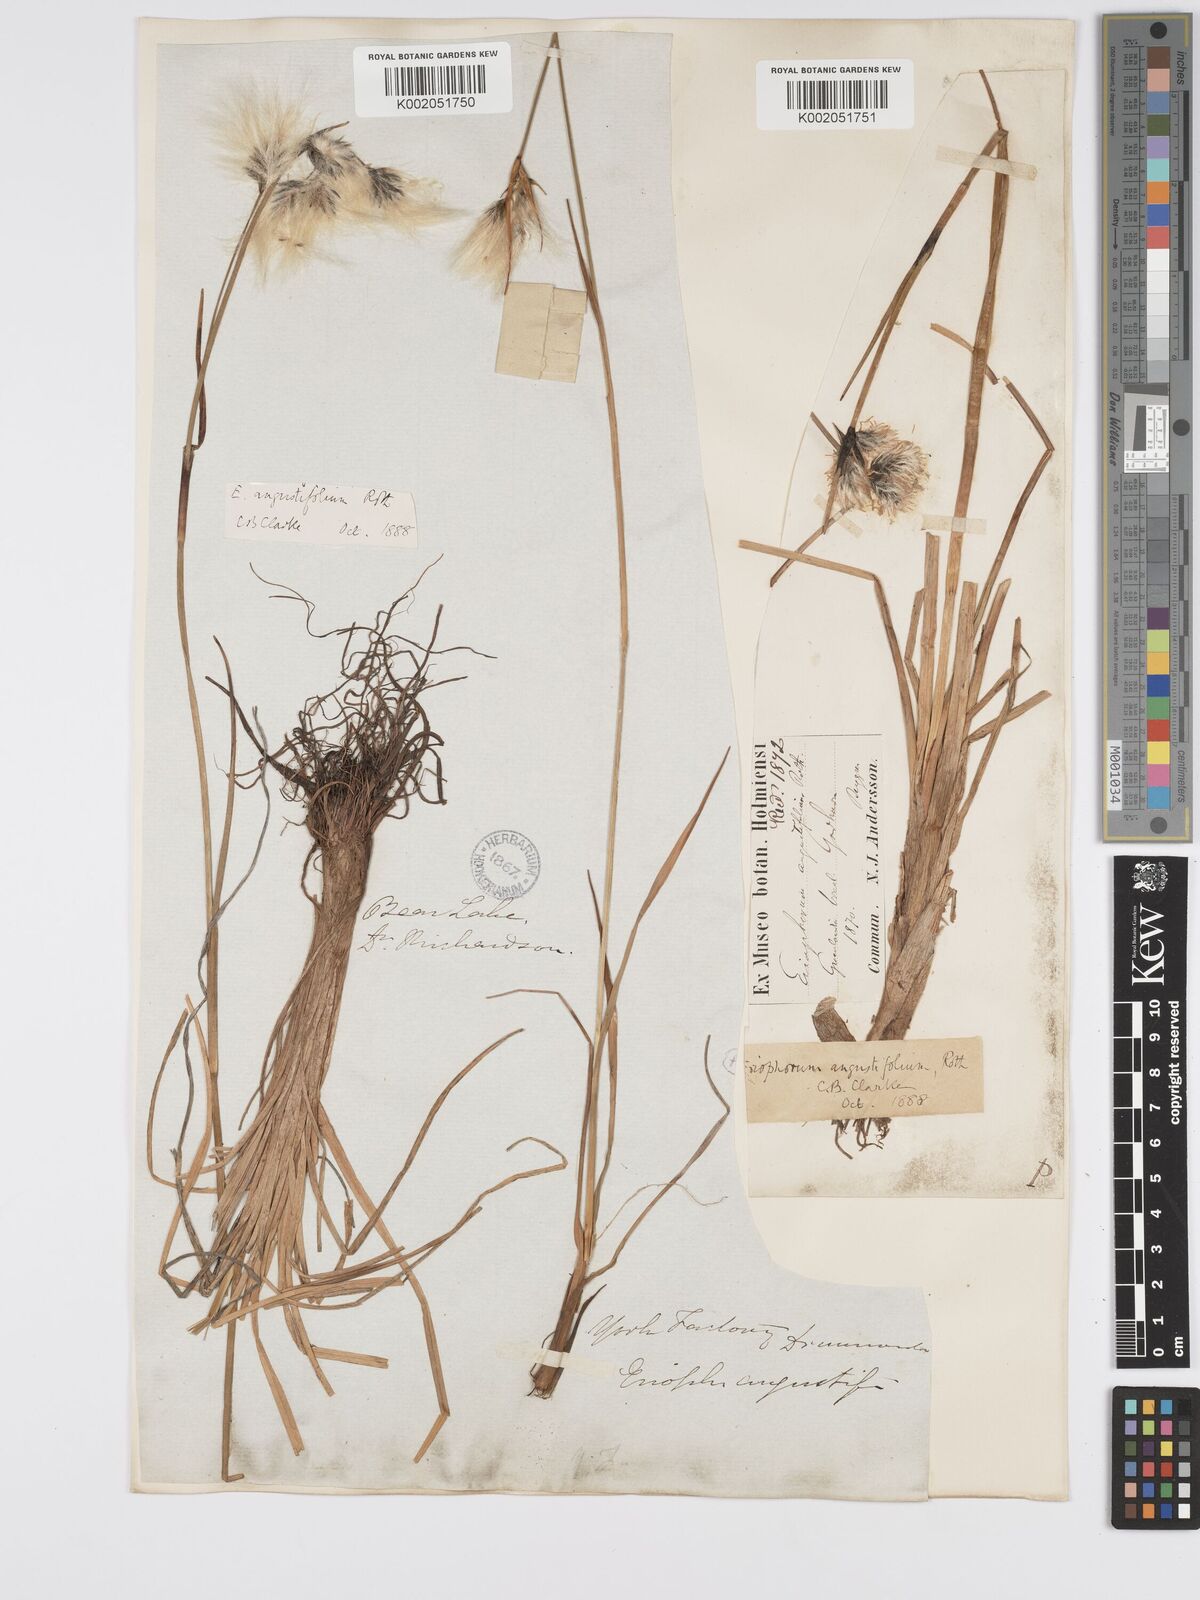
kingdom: Plantae
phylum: Tracheophyta
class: Liliopsida
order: Poales
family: Cyperaceae
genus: Eriophorum
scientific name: Eriophorum angustifolium
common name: Common cottongrass
